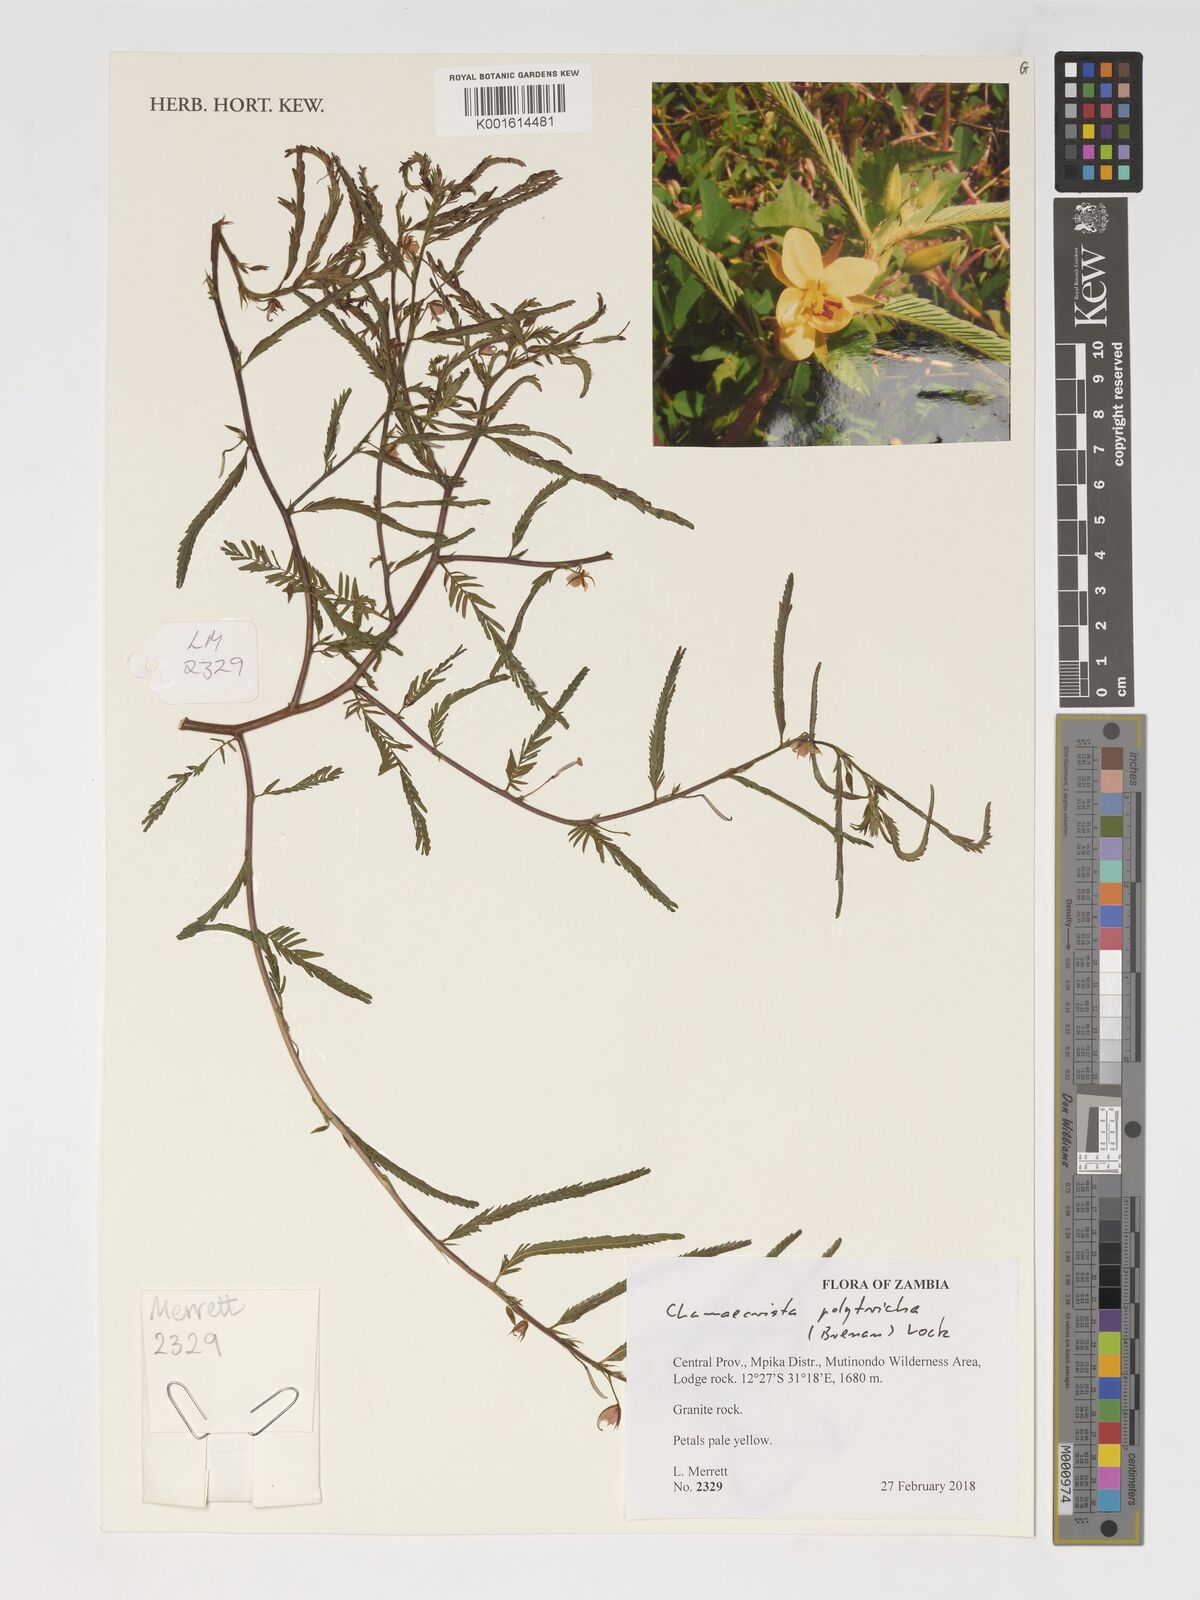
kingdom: Plantae
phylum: Tracheophyta
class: Magnoliopsida
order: Fabales
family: Fabaceae
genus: Chamaecrista
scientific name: Chamaecrista polytricha
